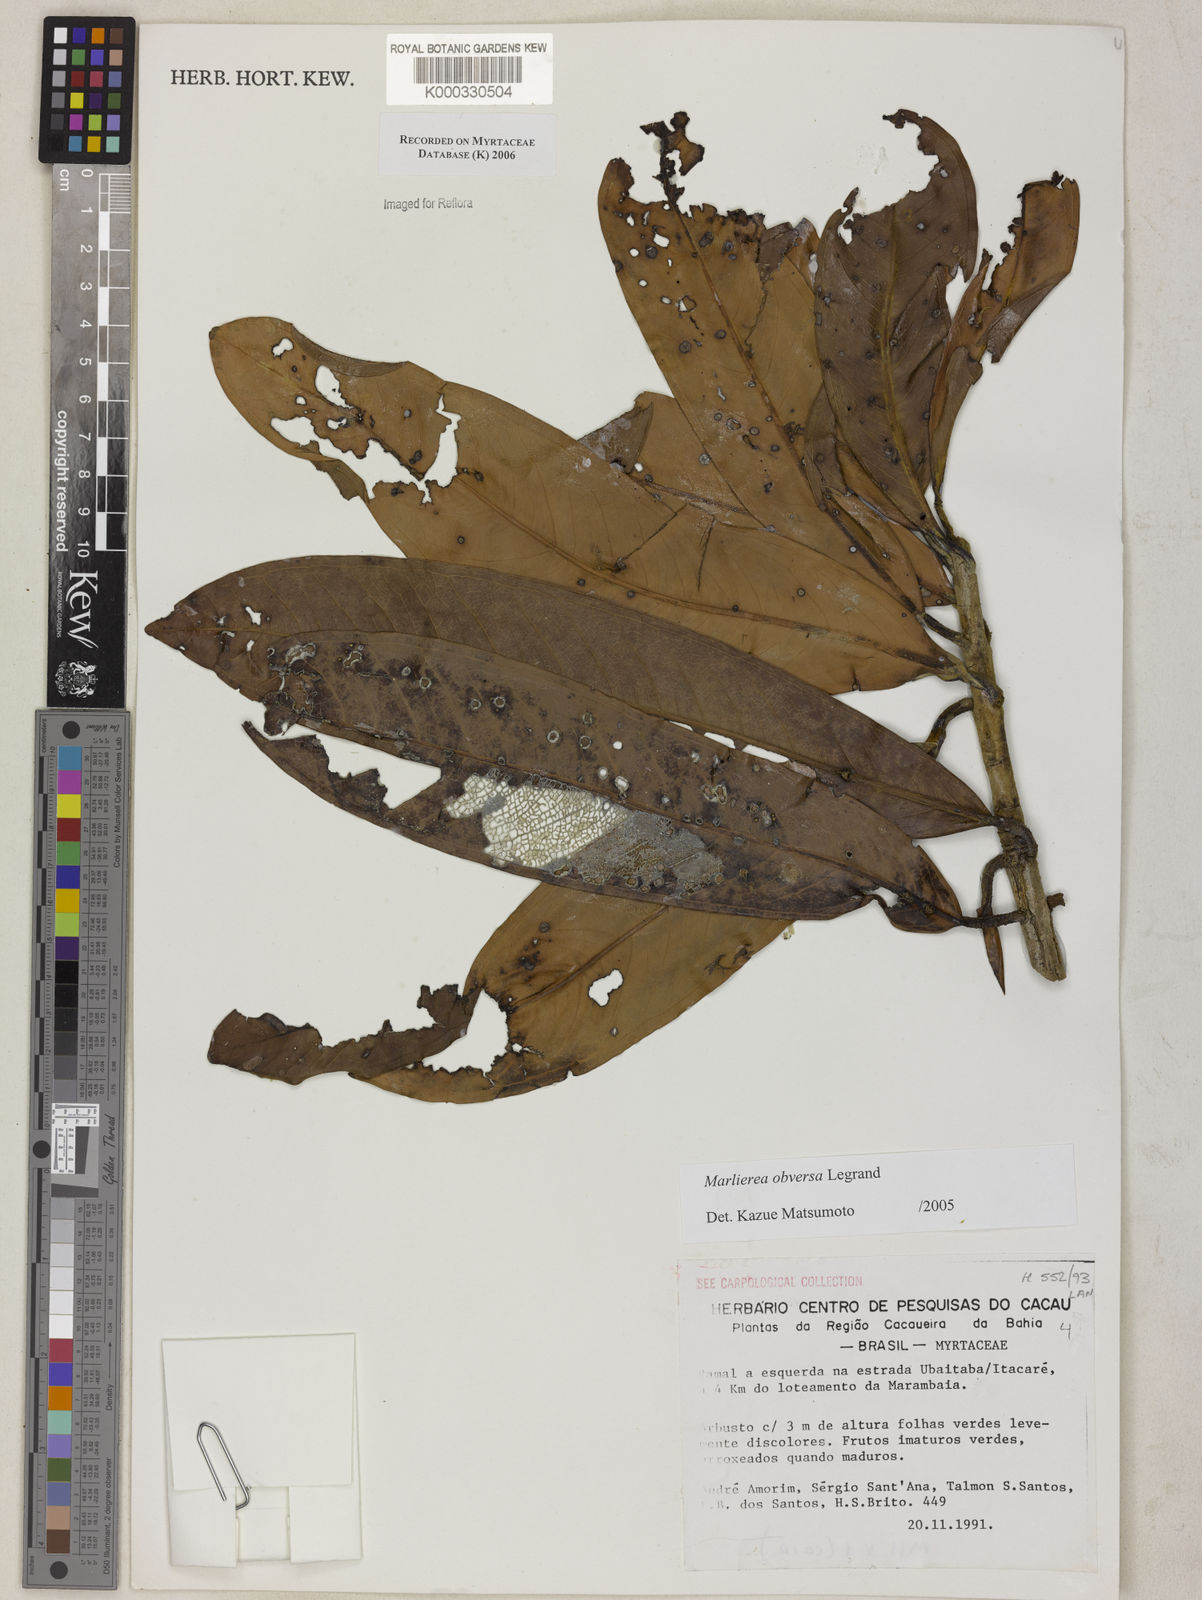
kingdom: Plantae
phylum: Tracheophyta
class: Magnoliopsida
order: Myrtales
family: Myrtaceae
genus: Myrcia
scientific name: Myrcia obversa
